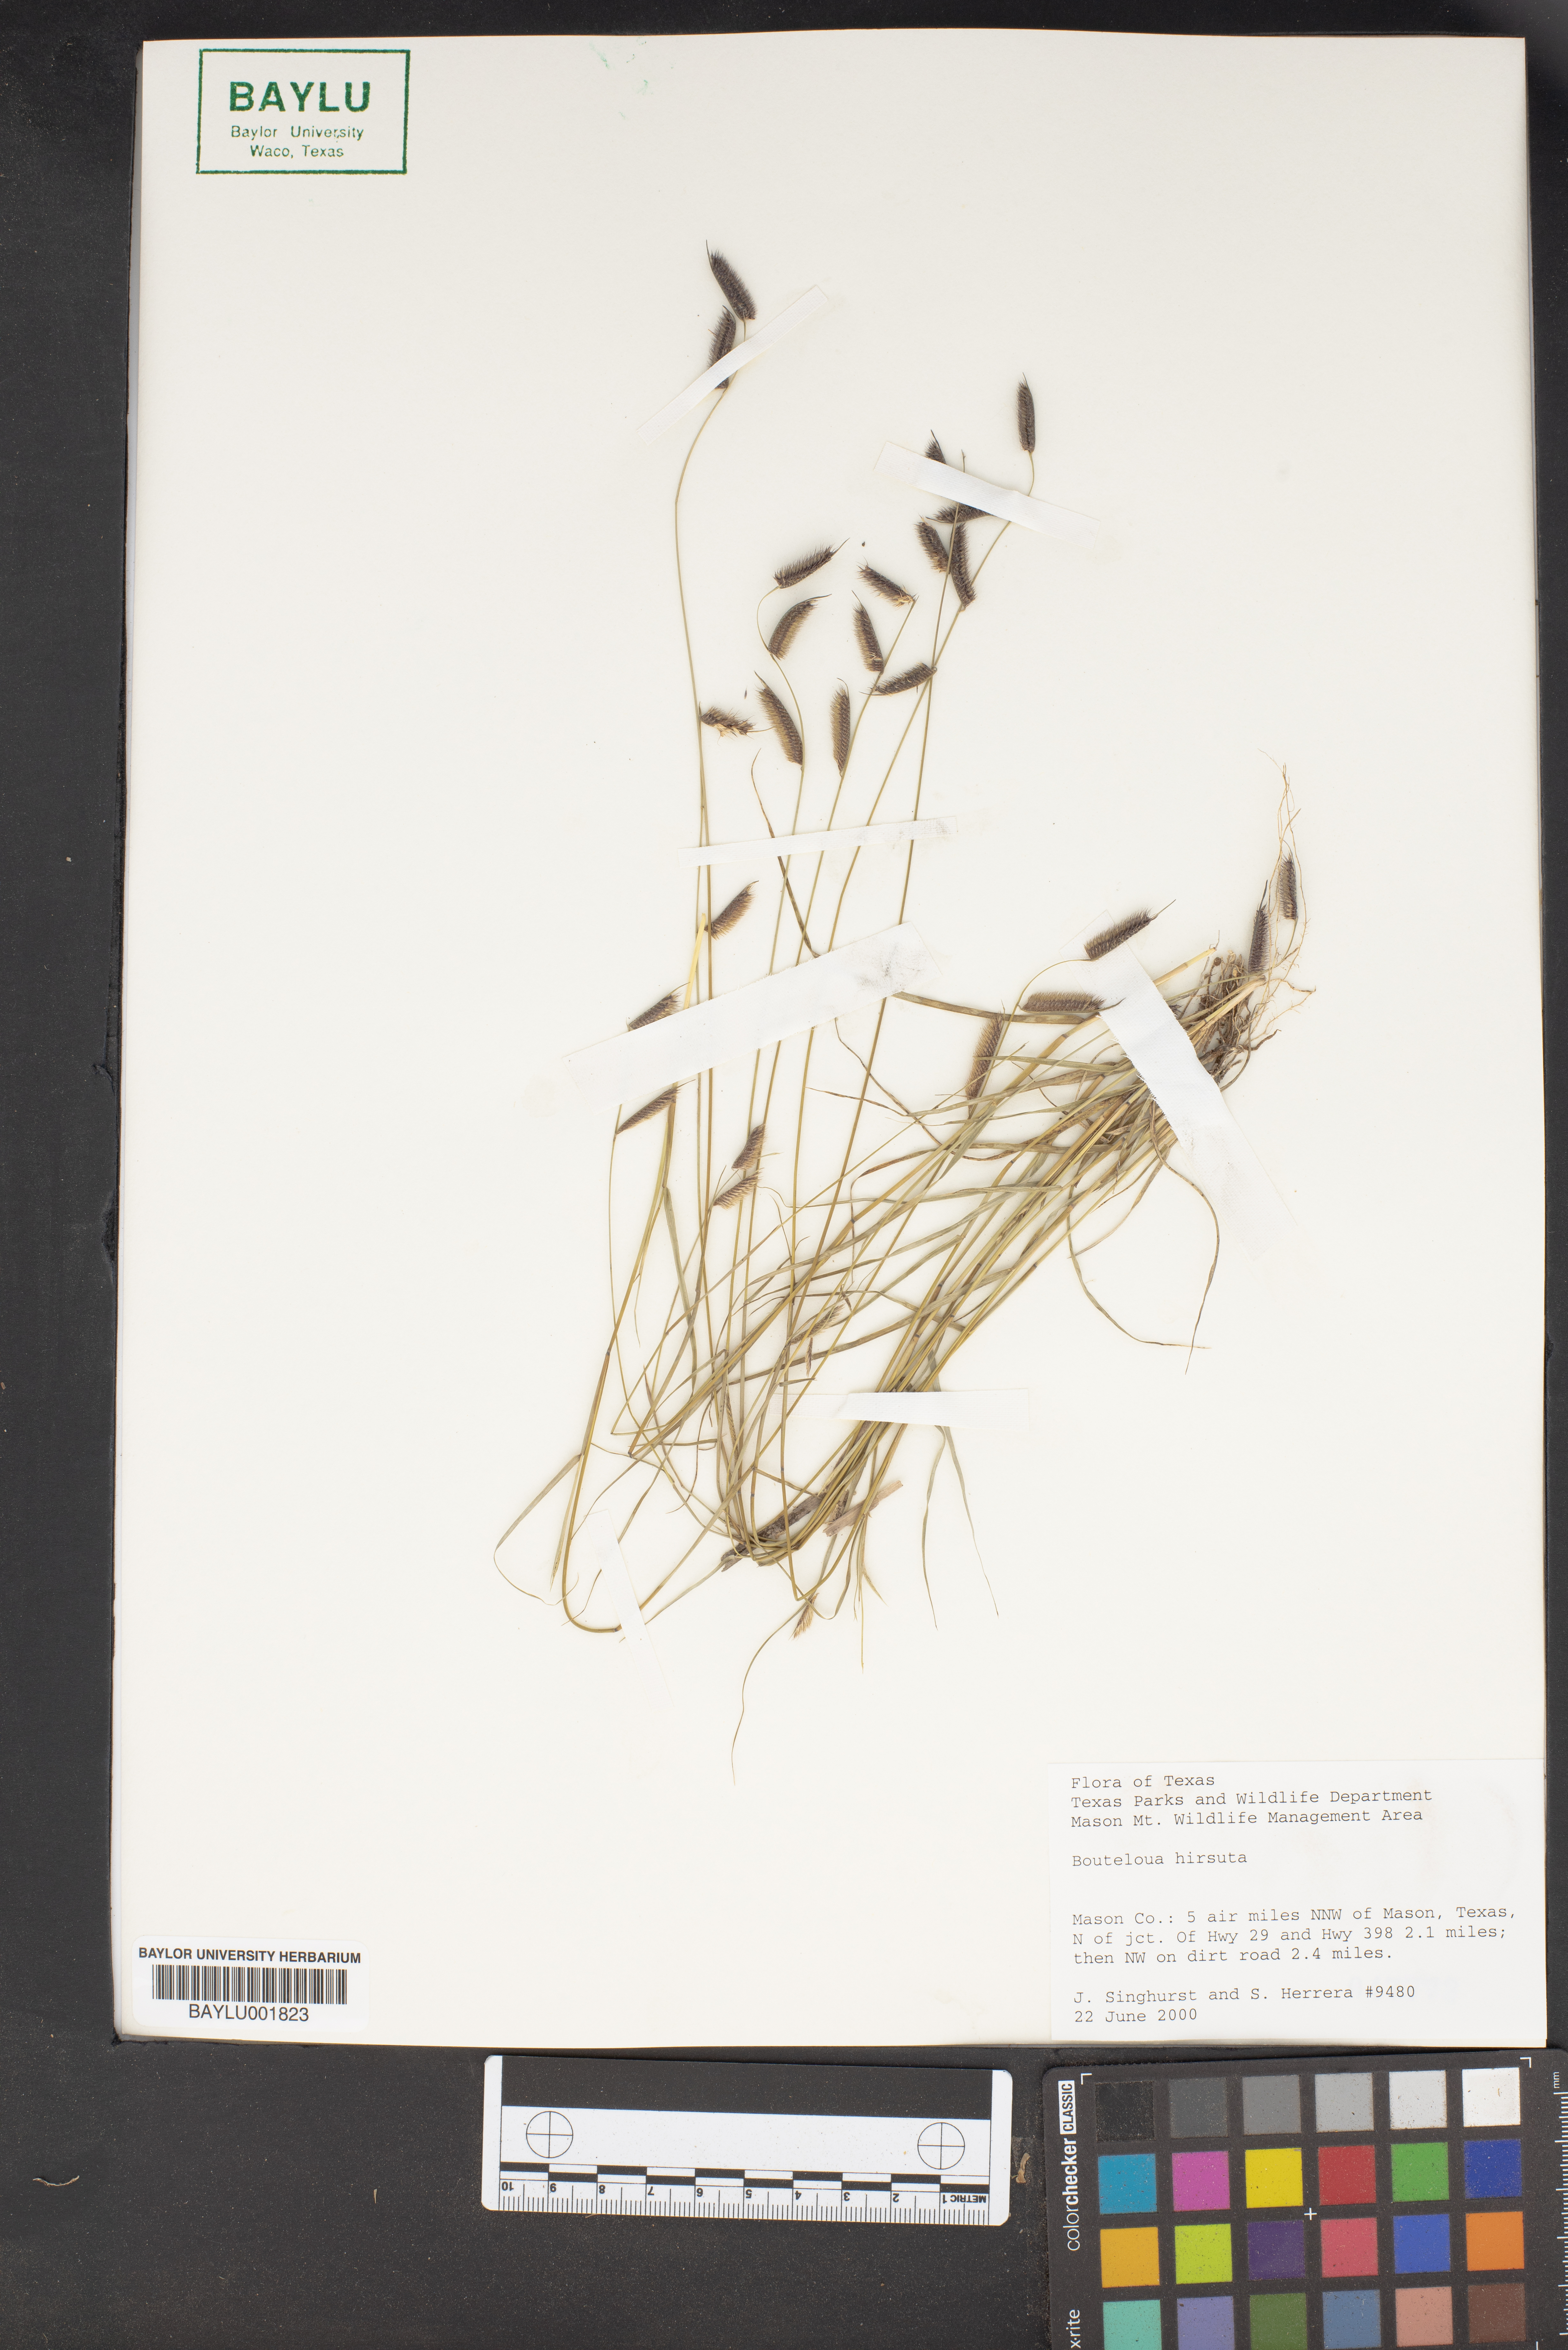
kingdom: Plantae
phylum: Tracheophyta
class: Liliopsida
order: Poales
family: Poaceae
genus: Bouteloua
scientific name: Bouteloua hirsuta
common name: Hairy grama
